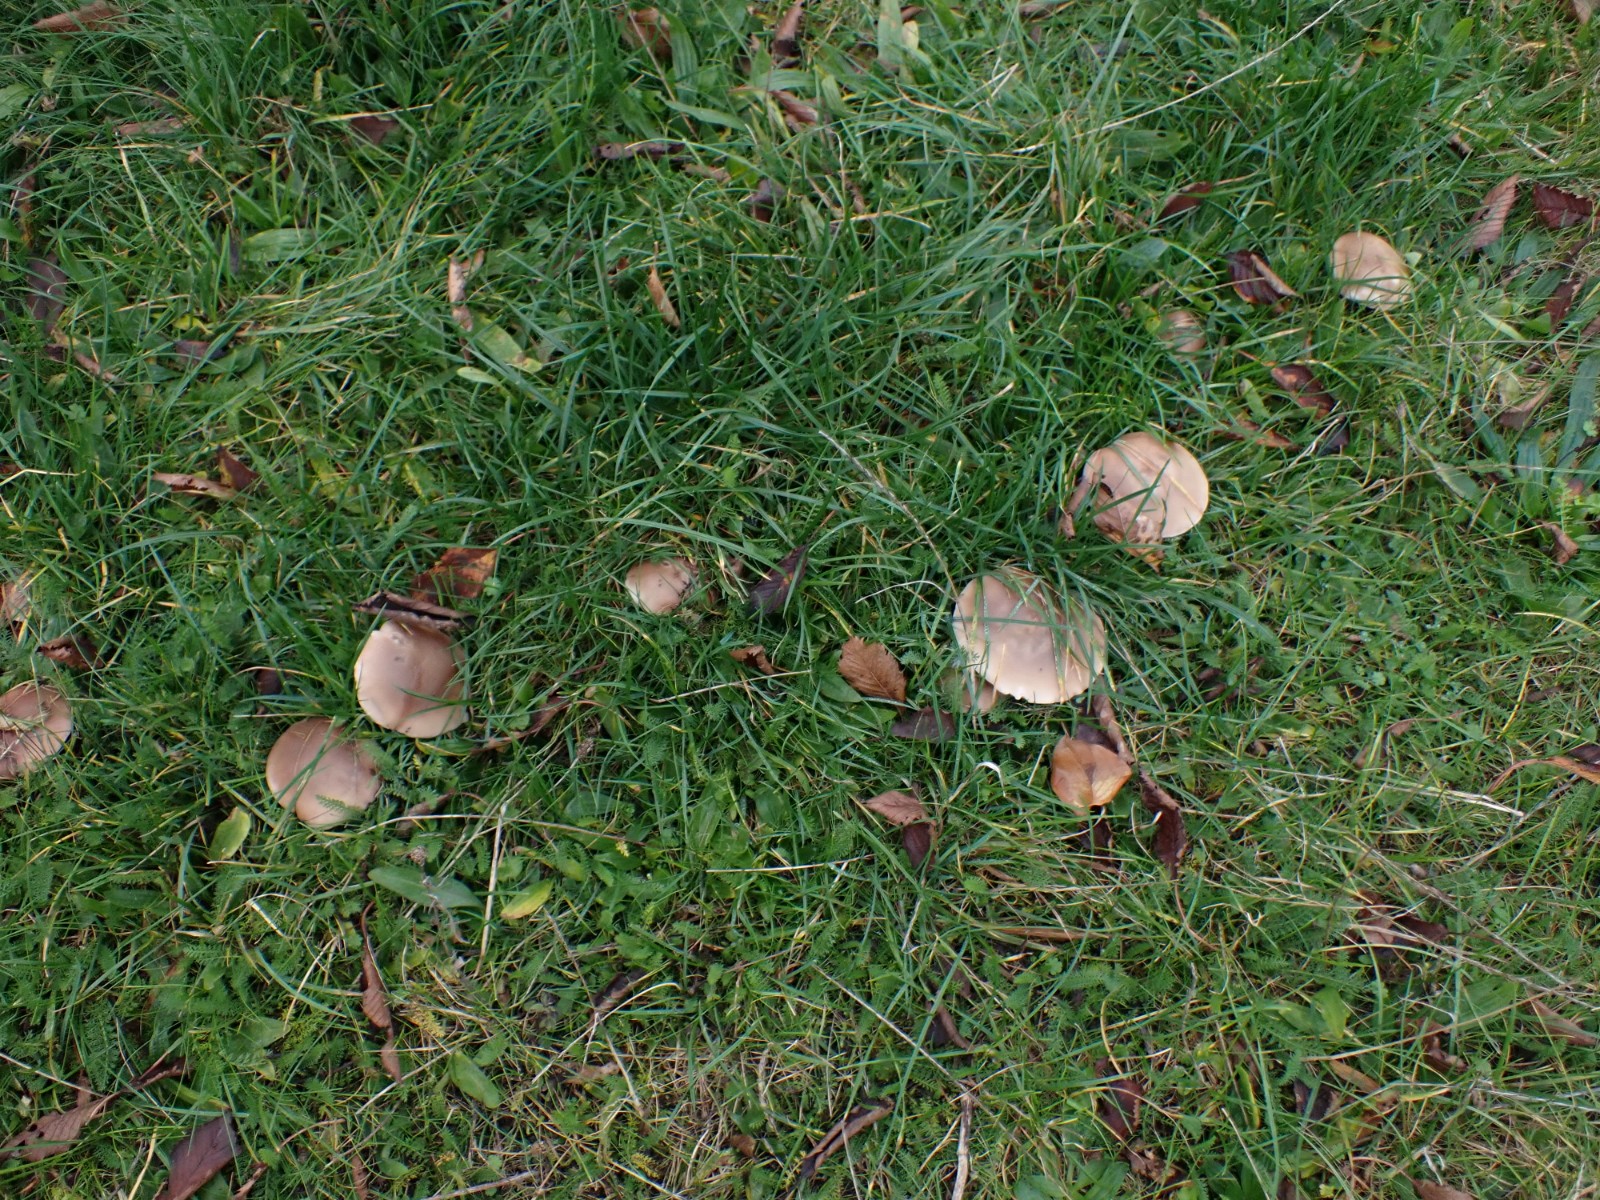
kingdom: Fungi
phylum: Basidiomycota
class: Agaricomycetes
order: Agaricales
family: Tricholomataceae
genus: Lepista
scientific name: Lepista
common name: hekseringshat
